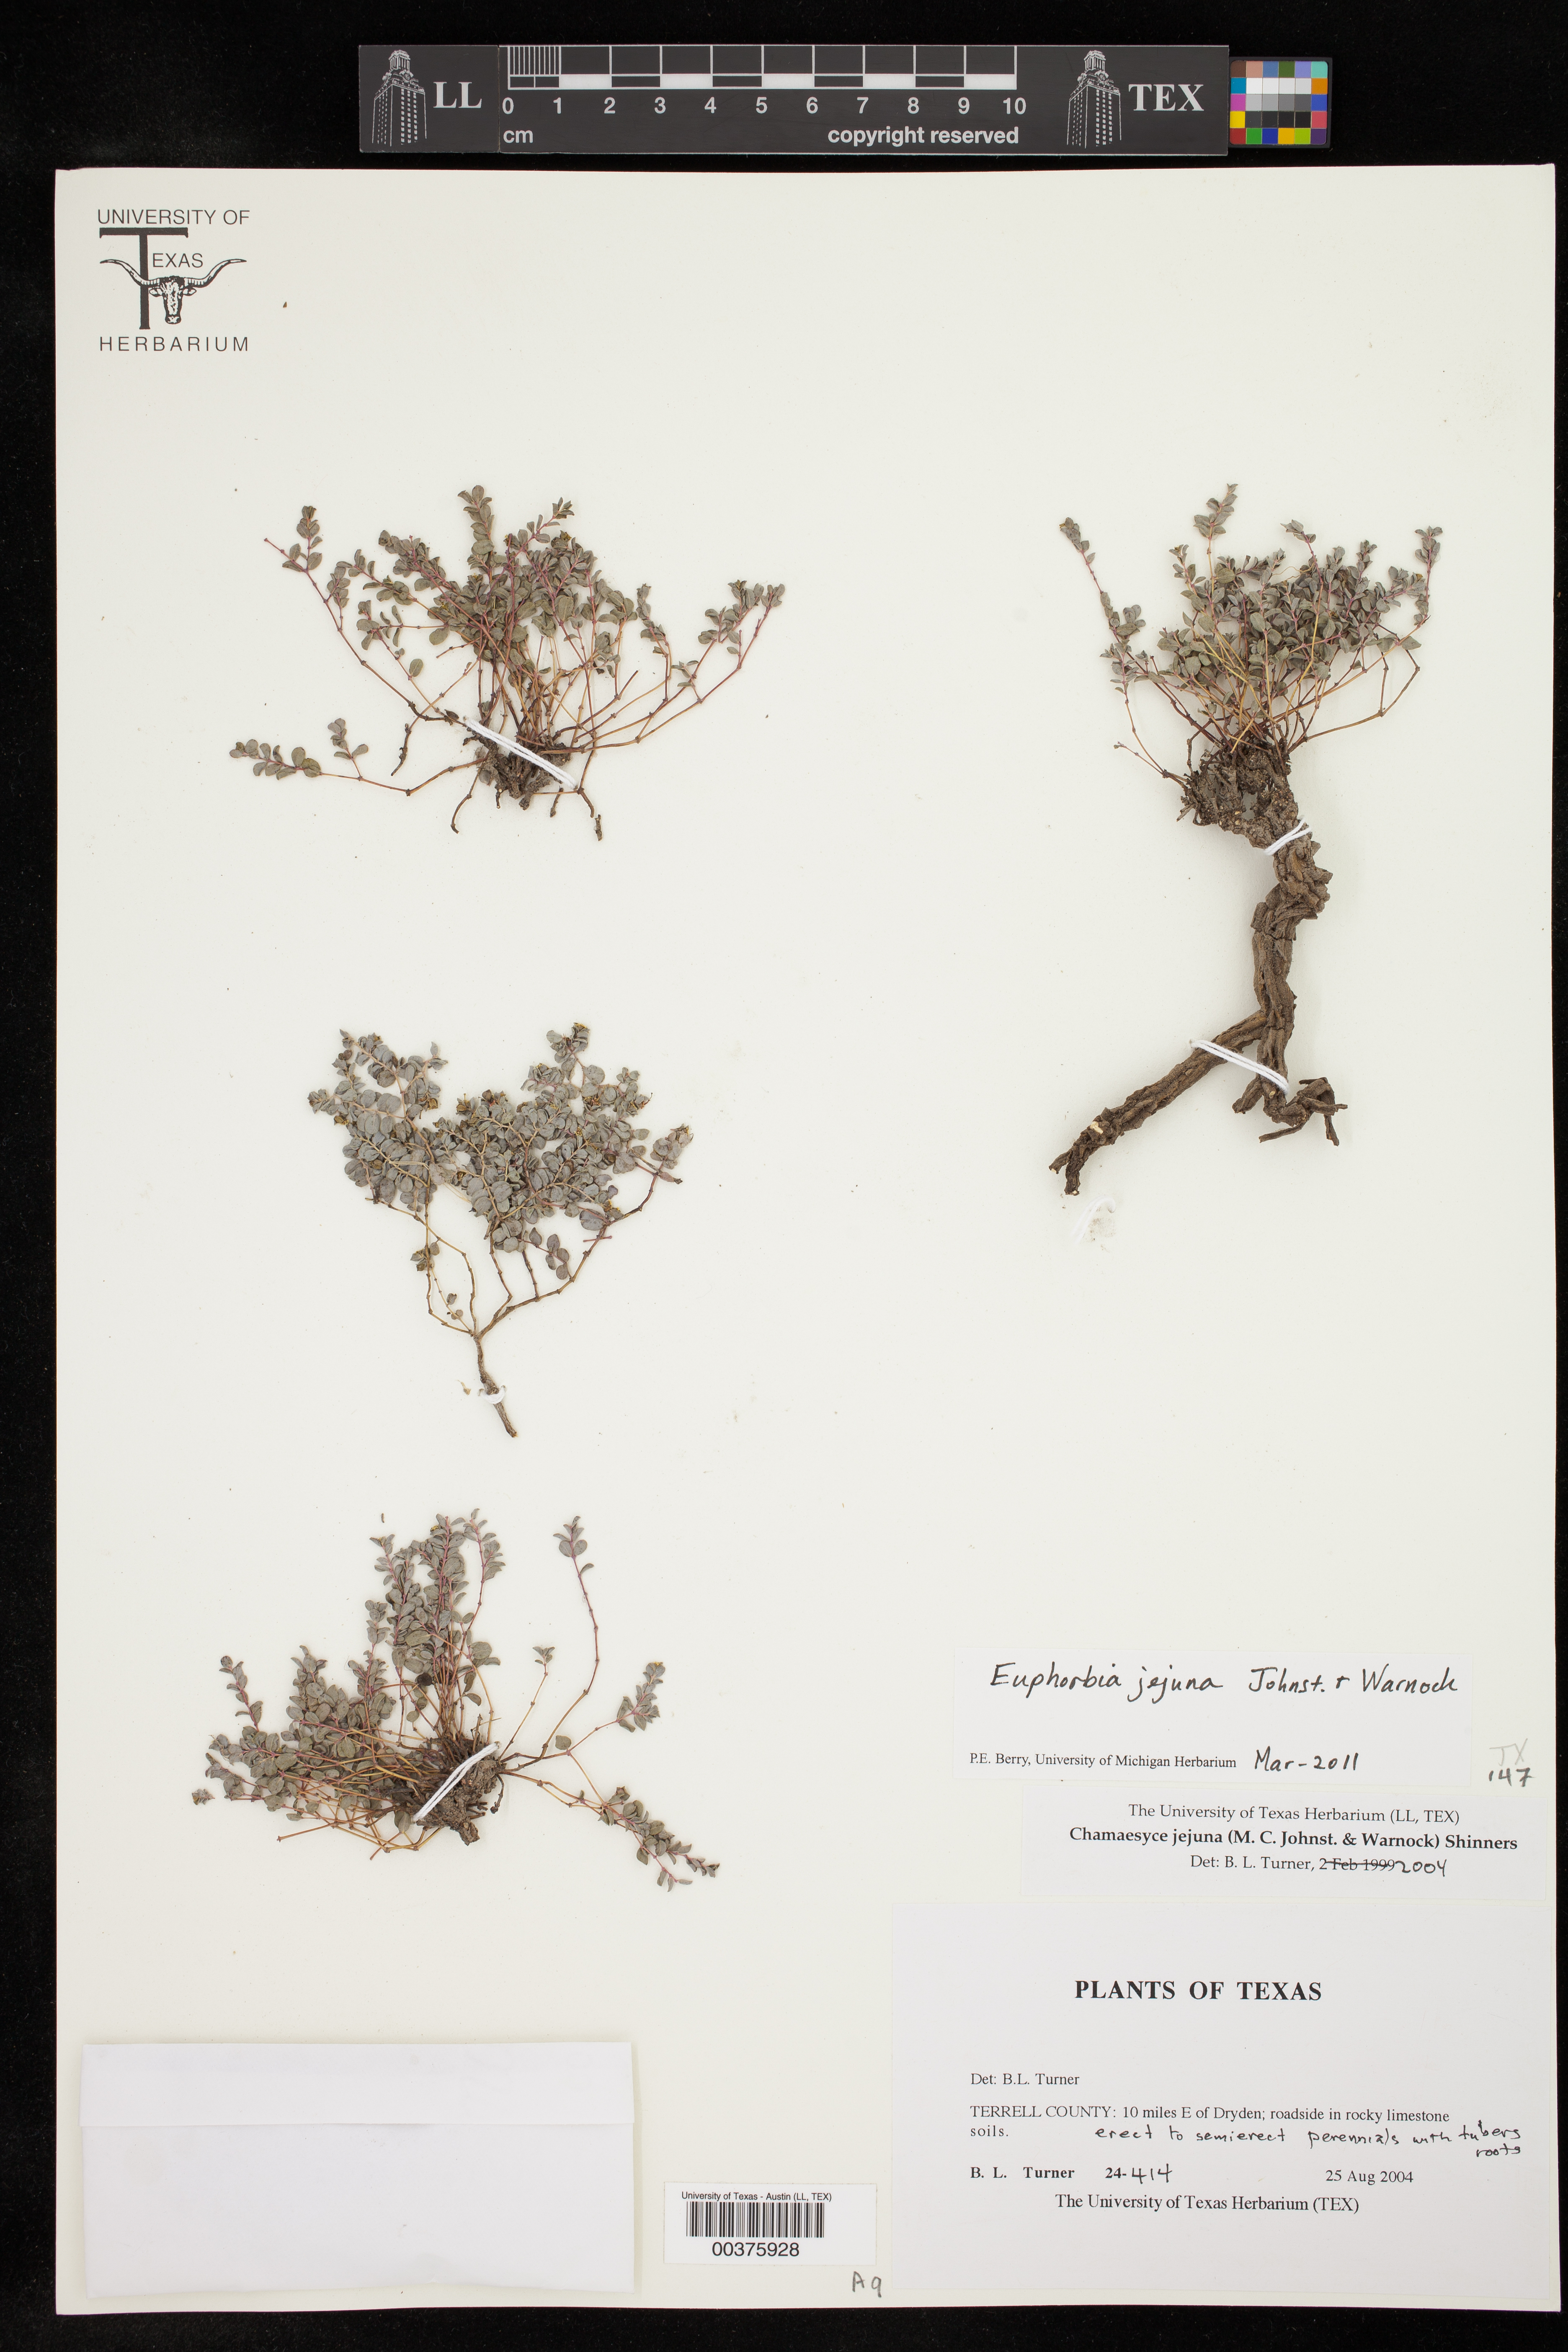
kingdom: Plantae
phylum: Tracheophyta
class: Magnoliopsida
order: Malpighiales
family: Euphorbiaceae
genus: Euphorbia
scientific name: Euphorbia jejuna
